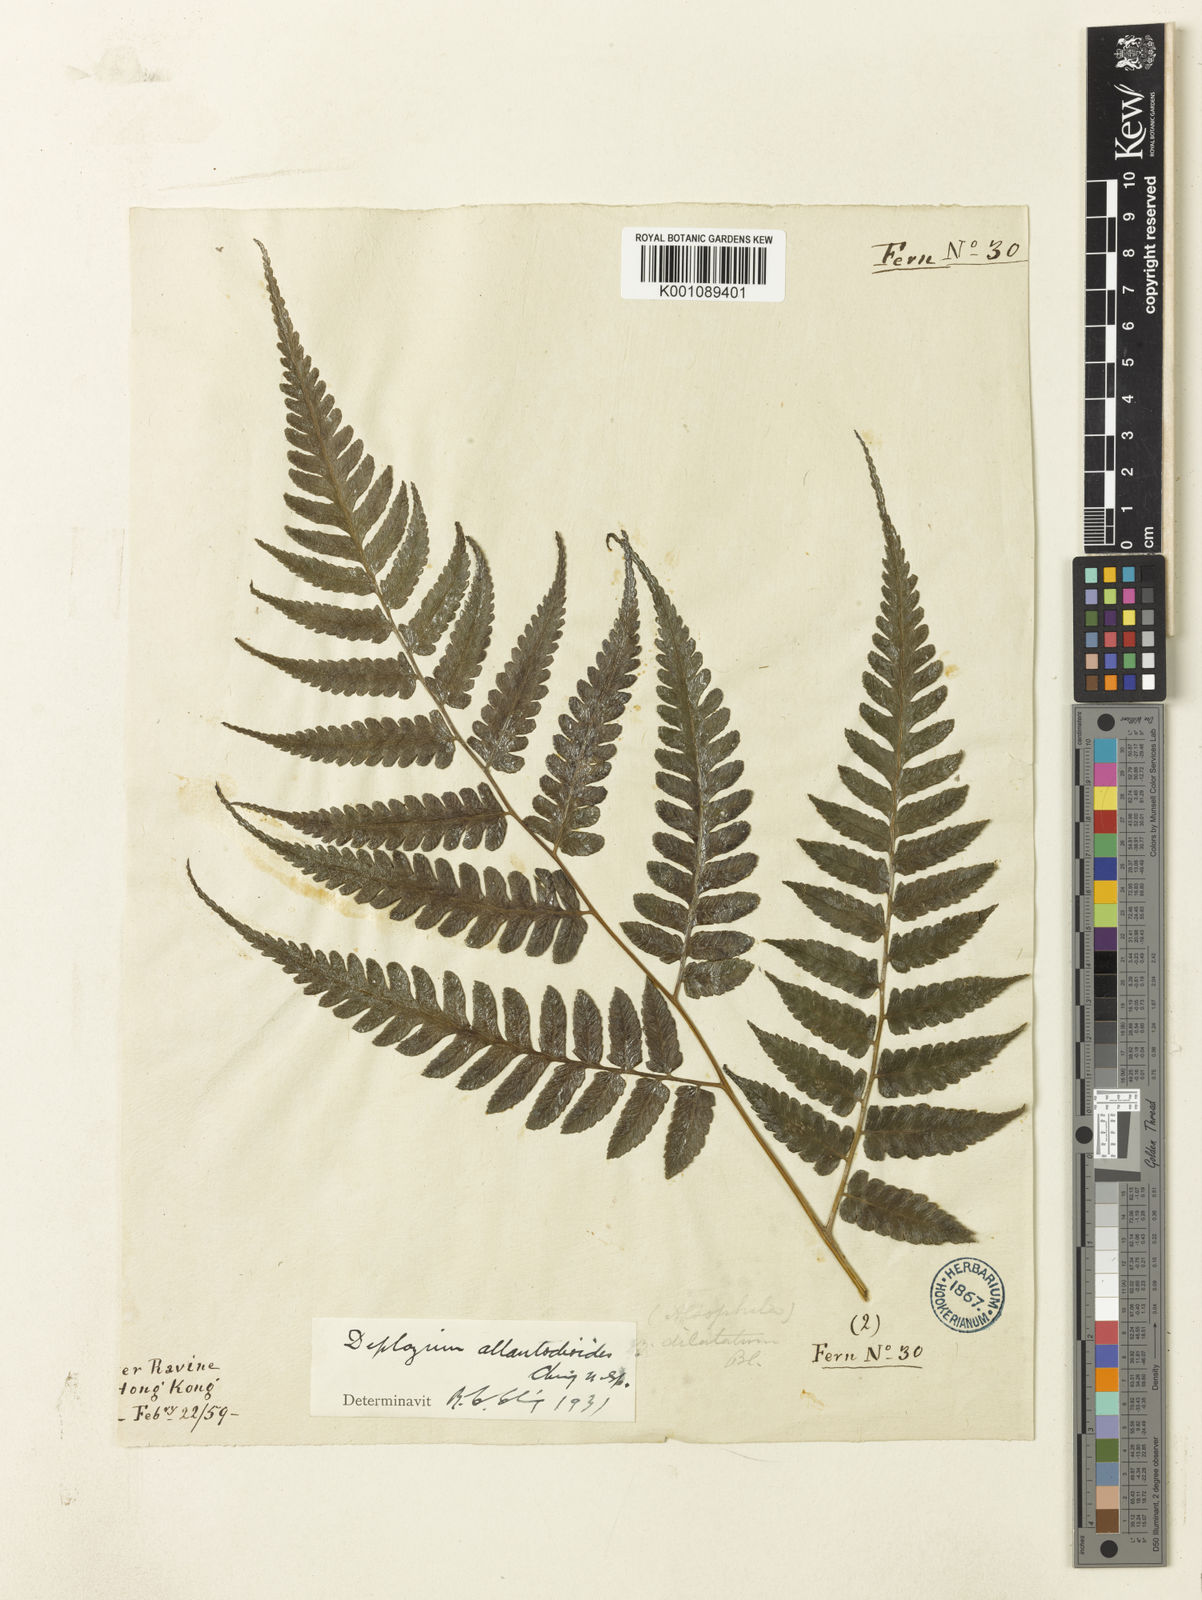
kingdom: Plantae
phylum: Tracheophyta
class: Polypodiopsida
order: Polypodiales
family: Athyriaceae
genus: Diplazium
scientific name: Diplazium virescens
